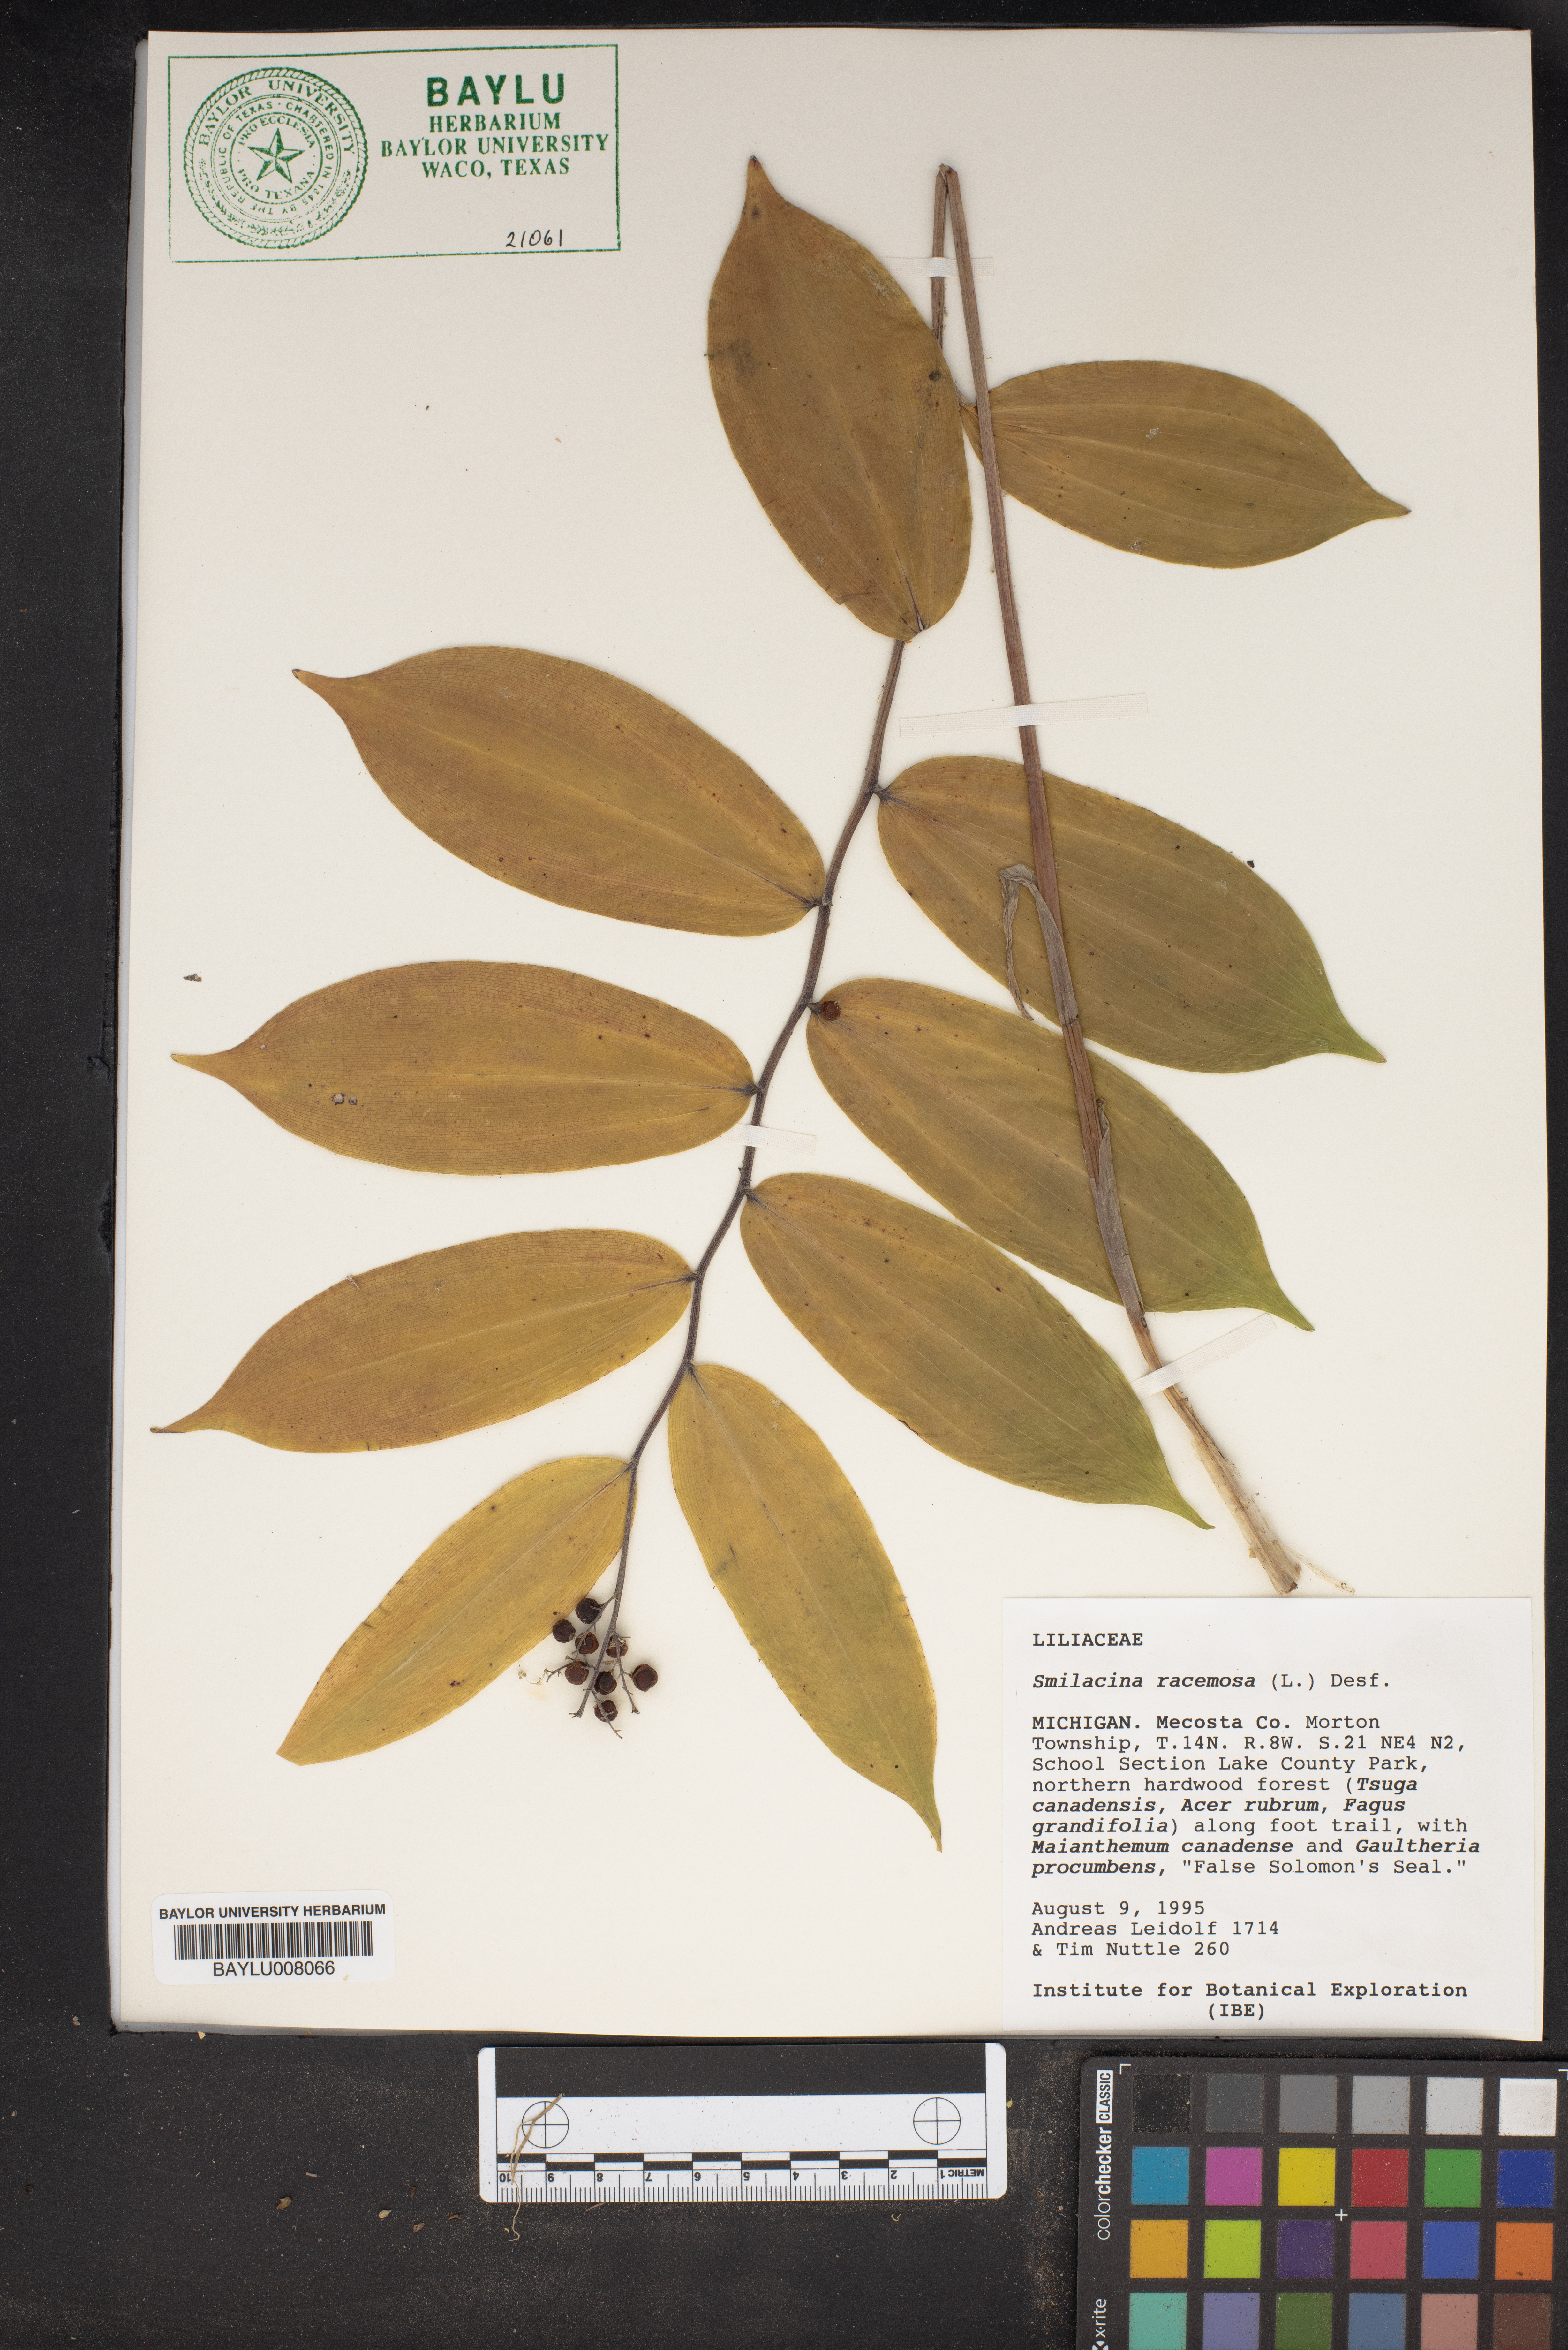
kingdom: Plantae
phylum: Tracheophyta
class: Liliopsida
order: Asparagales
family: Asparagaceae
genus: Maianthemum
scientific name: Maianthemum racemosum
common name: False spikenard
